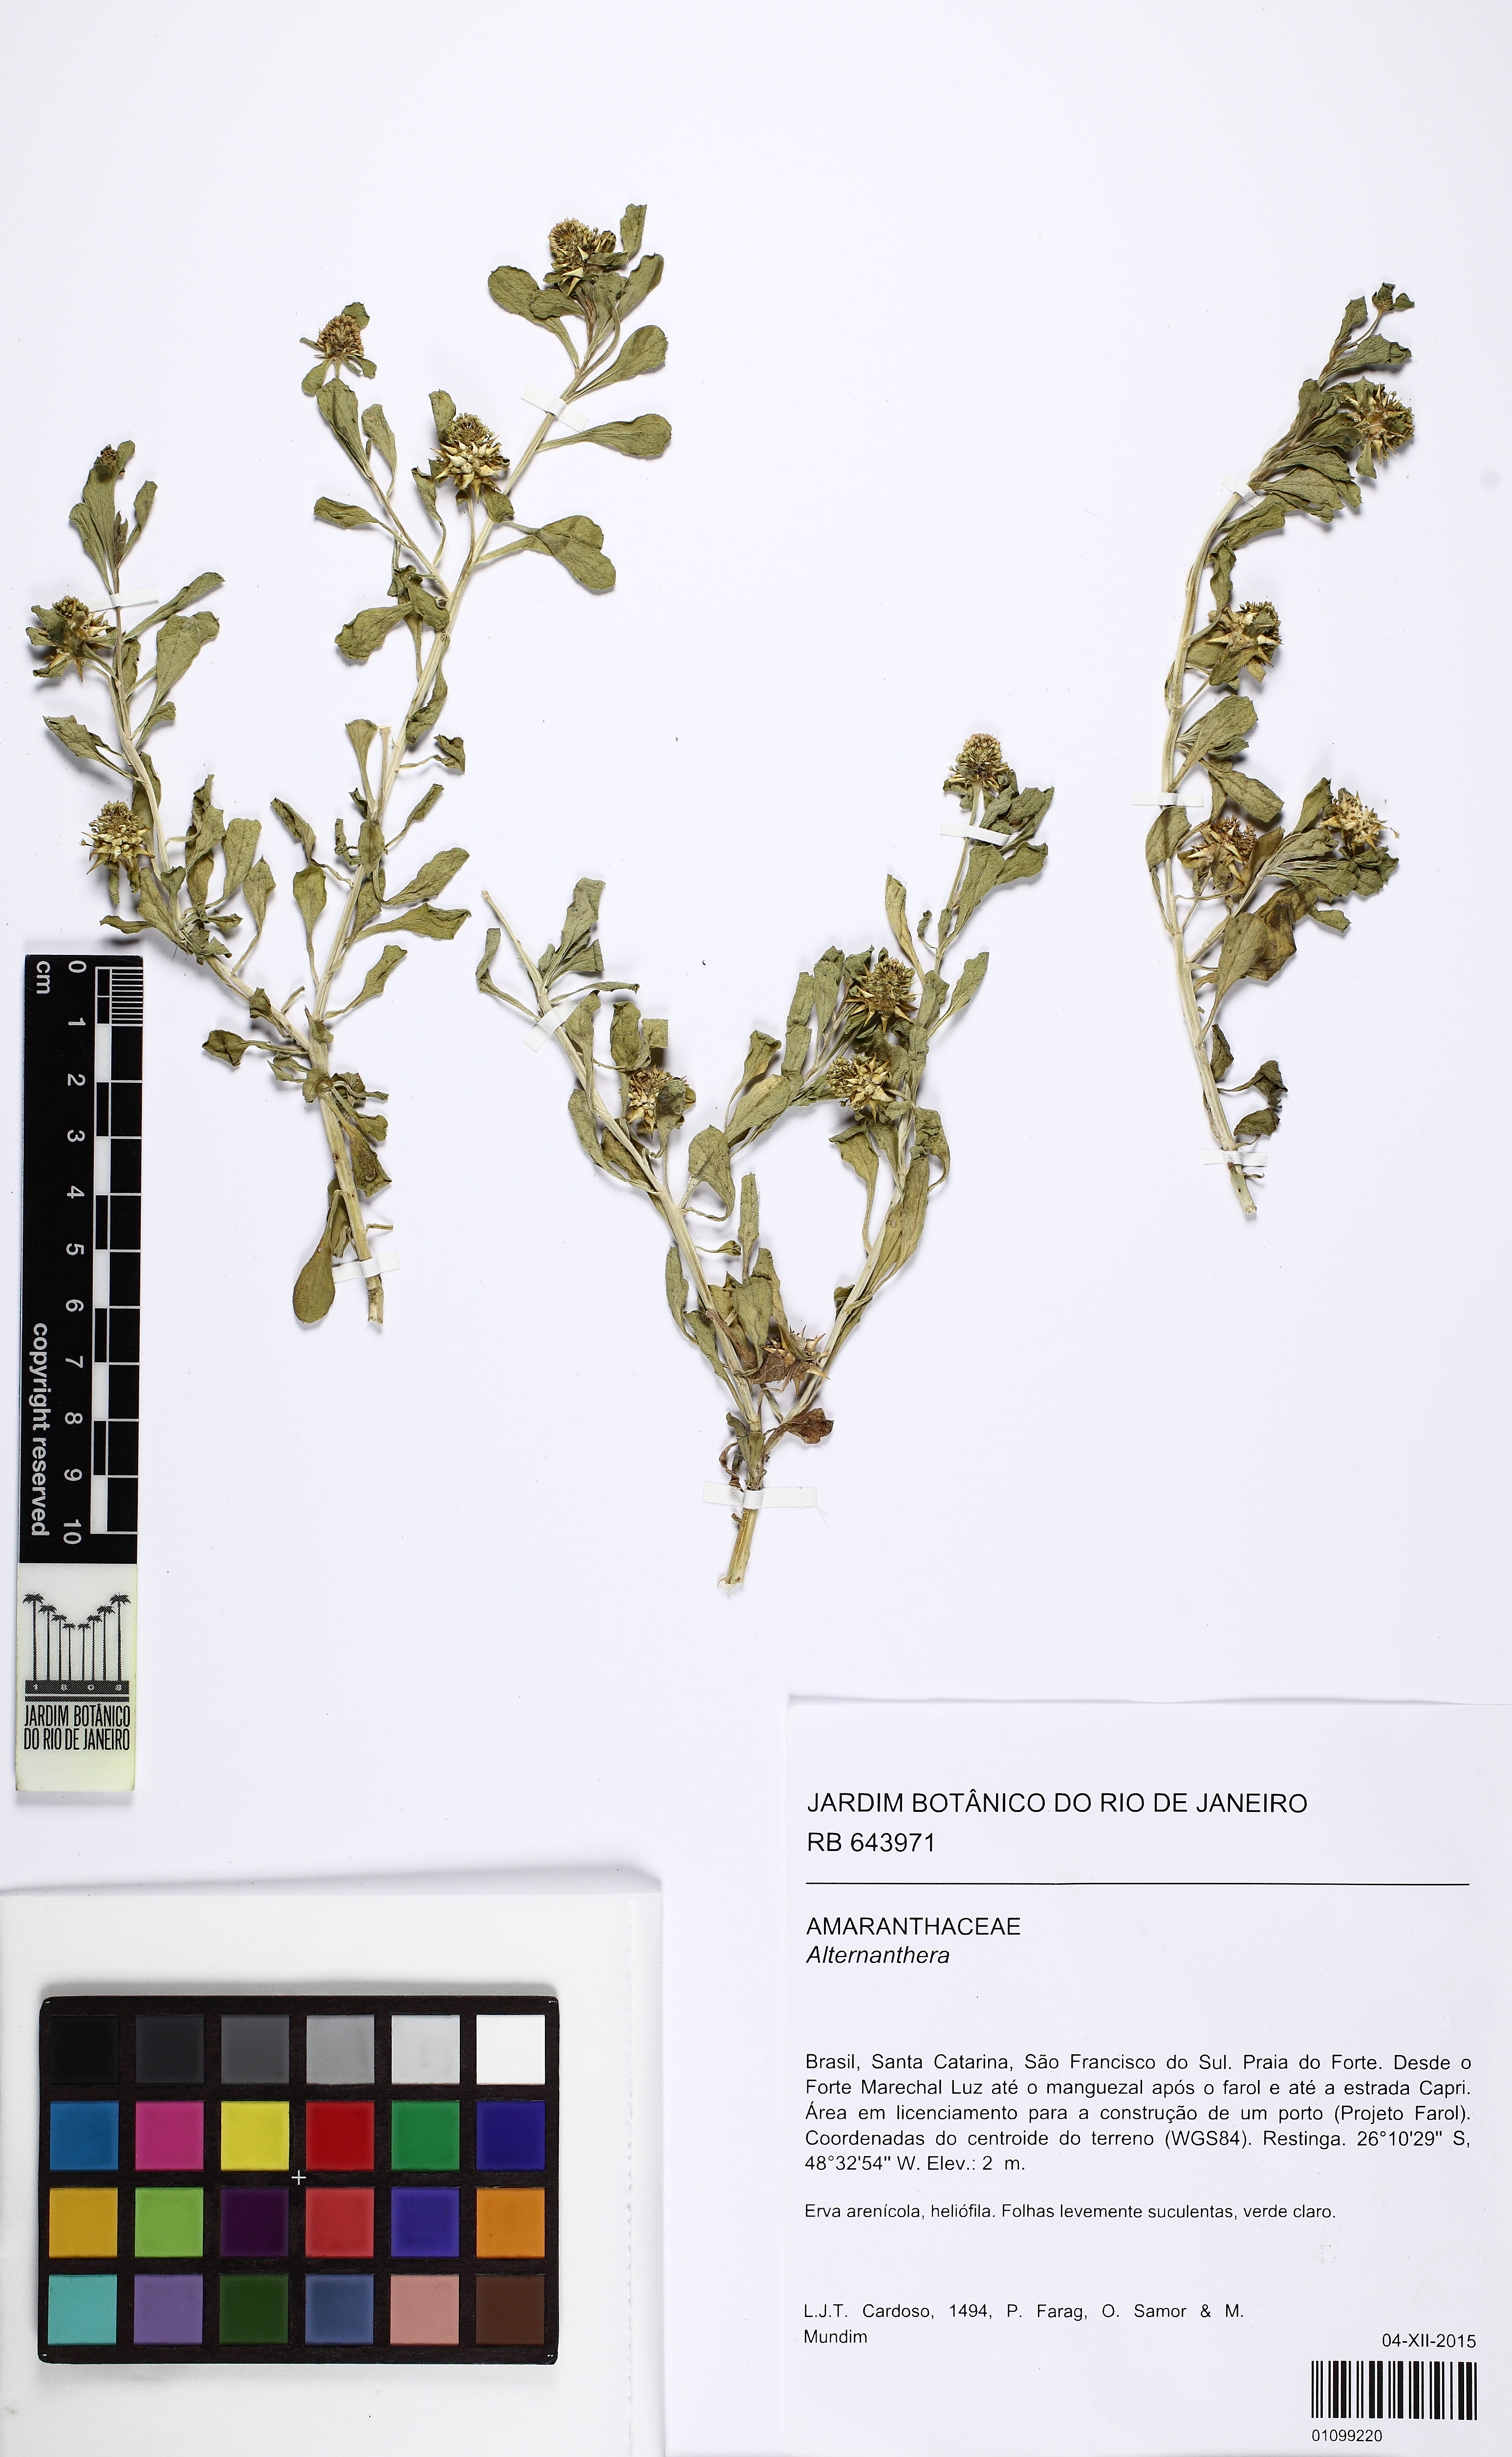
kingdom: Plantae
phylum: Tracheophyta
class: Magnoliopsida
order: Caryophyllales
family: Amaranthaceae
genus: Alternanthera
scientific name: Alternanthera
